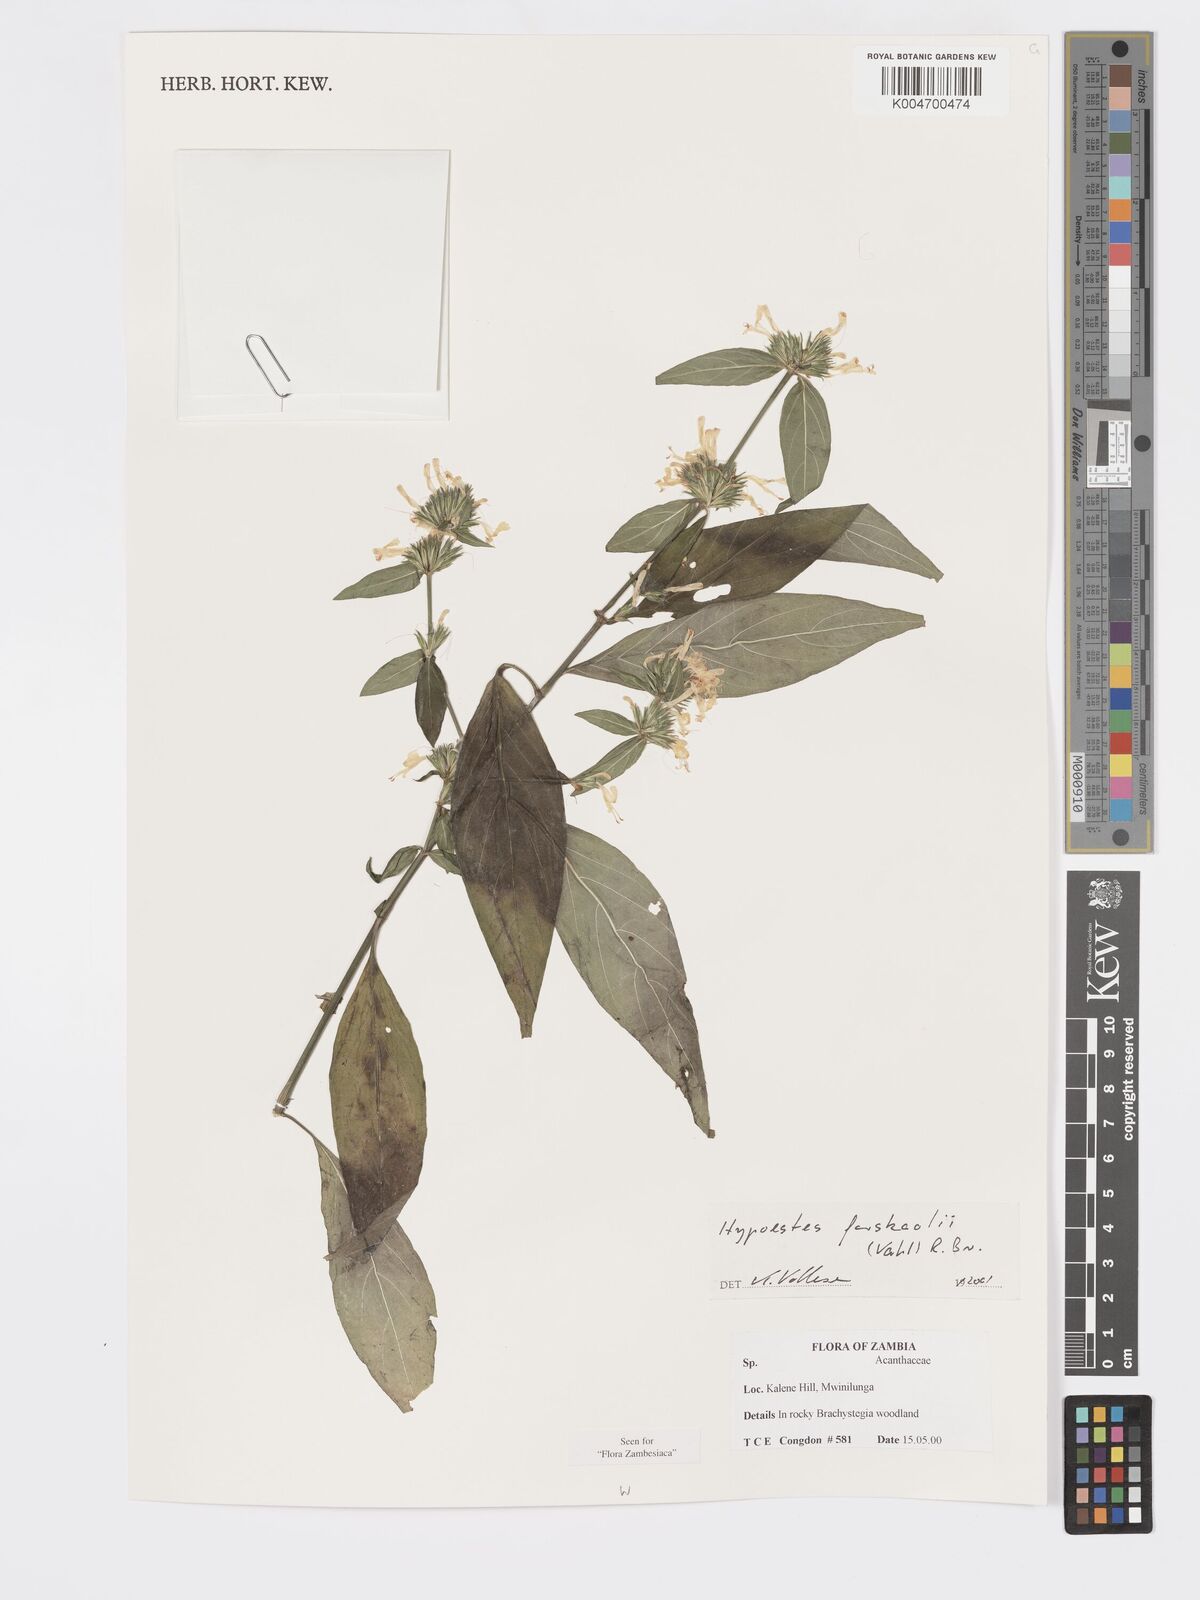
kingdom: Plantae
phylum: Tracheophyta
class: Magnoliopsida
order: Lamiales
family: Acanthaceae
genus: Hypoestes
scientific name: Hypoestes forskaolii
